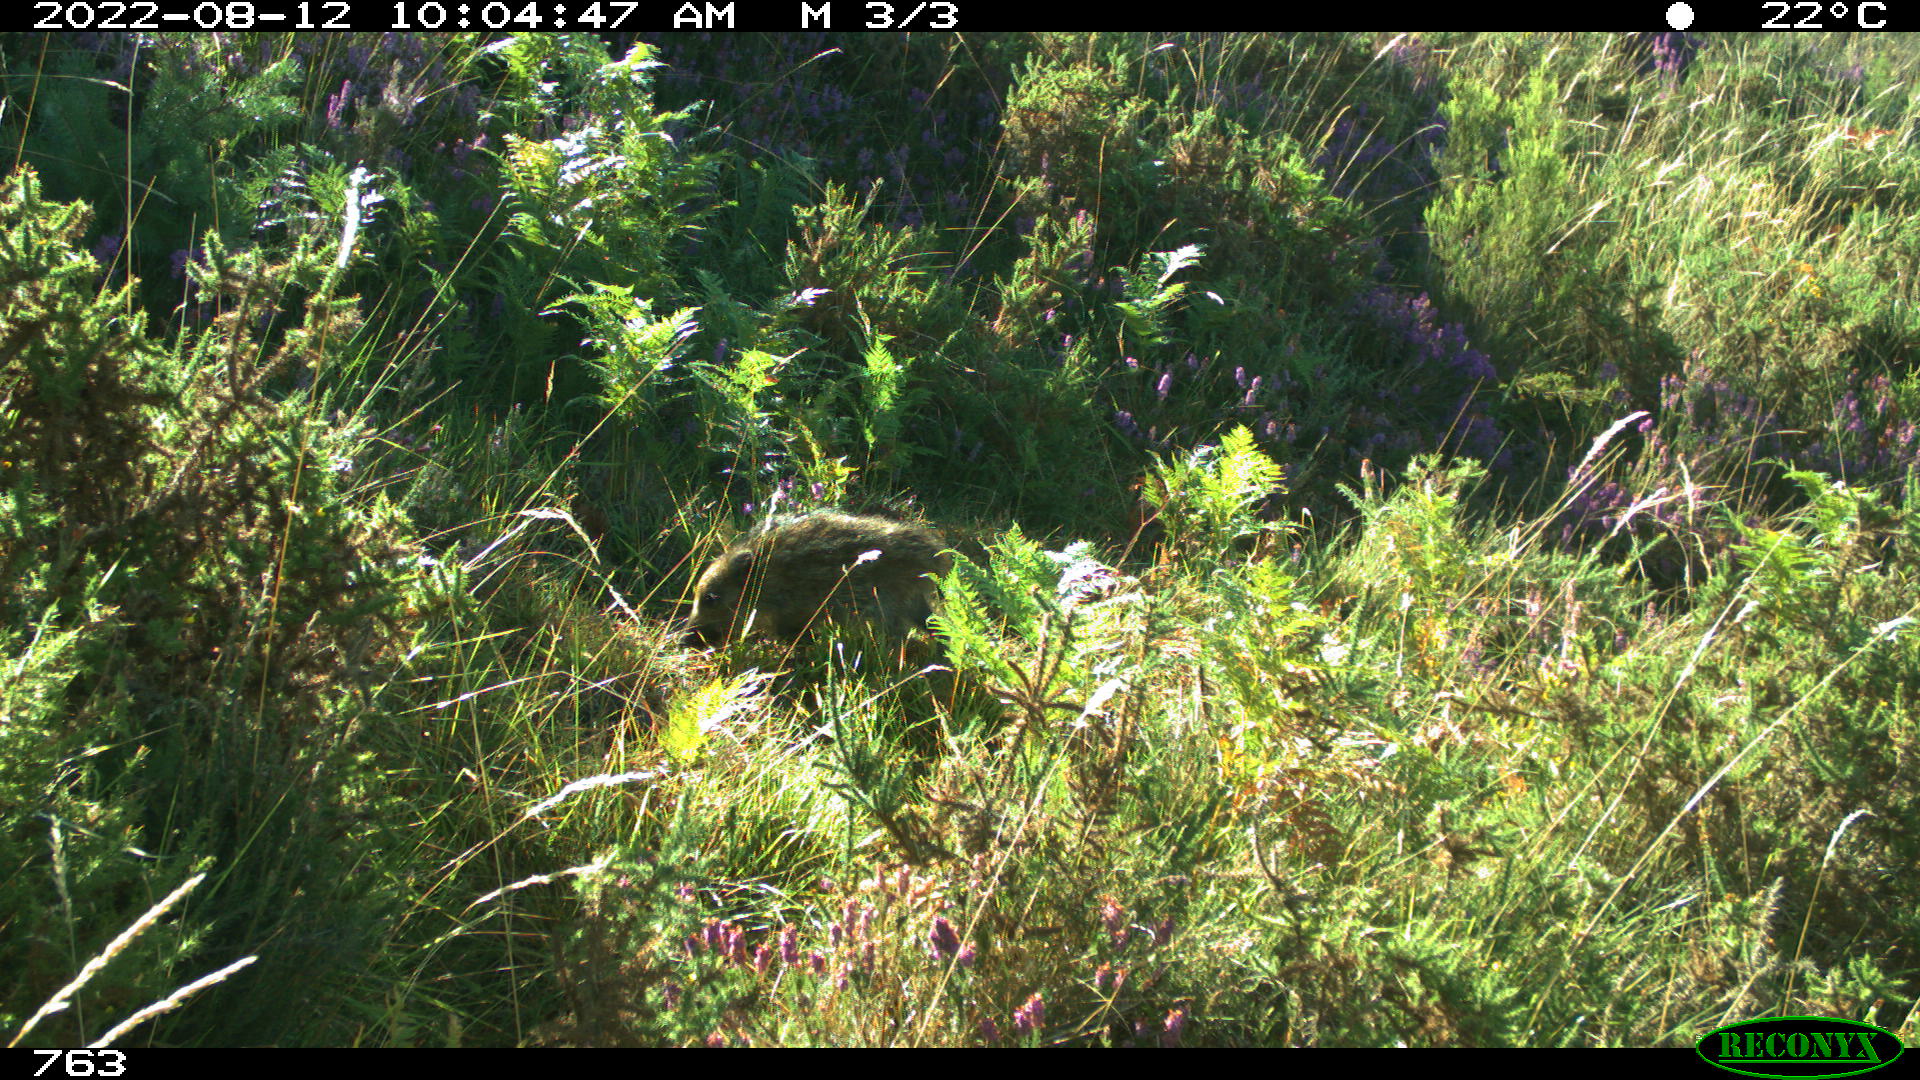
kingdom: Animalia
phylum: Chordata
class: Mammalia
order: Artiodactyla
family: Suidae
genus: Sus
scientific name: Sus scrofa
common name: Wild boar
